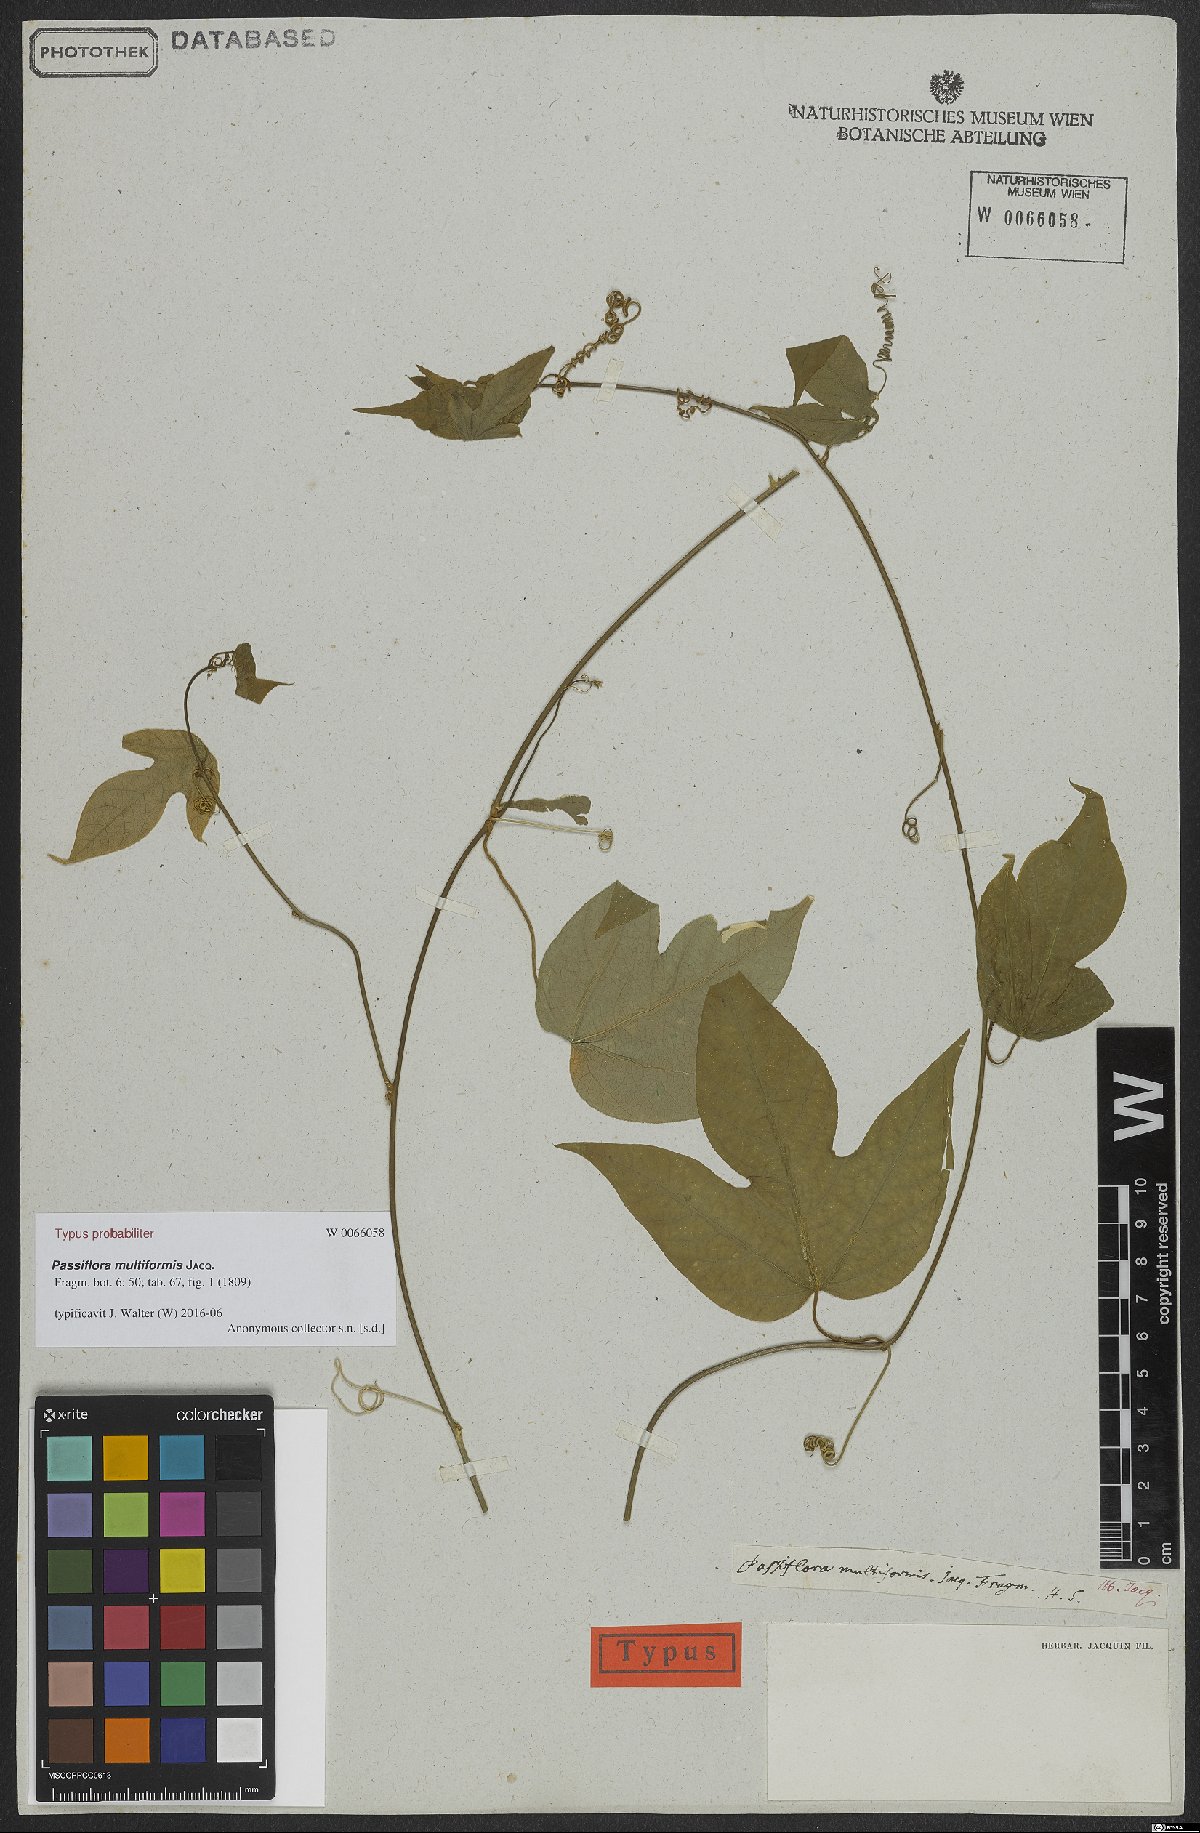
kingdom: Plantae
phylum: Tracheophyta
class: Magnoliopsida
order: Malpighiales
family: Passifloraceae
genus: Passiflora
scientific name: Passiflora multiformis
